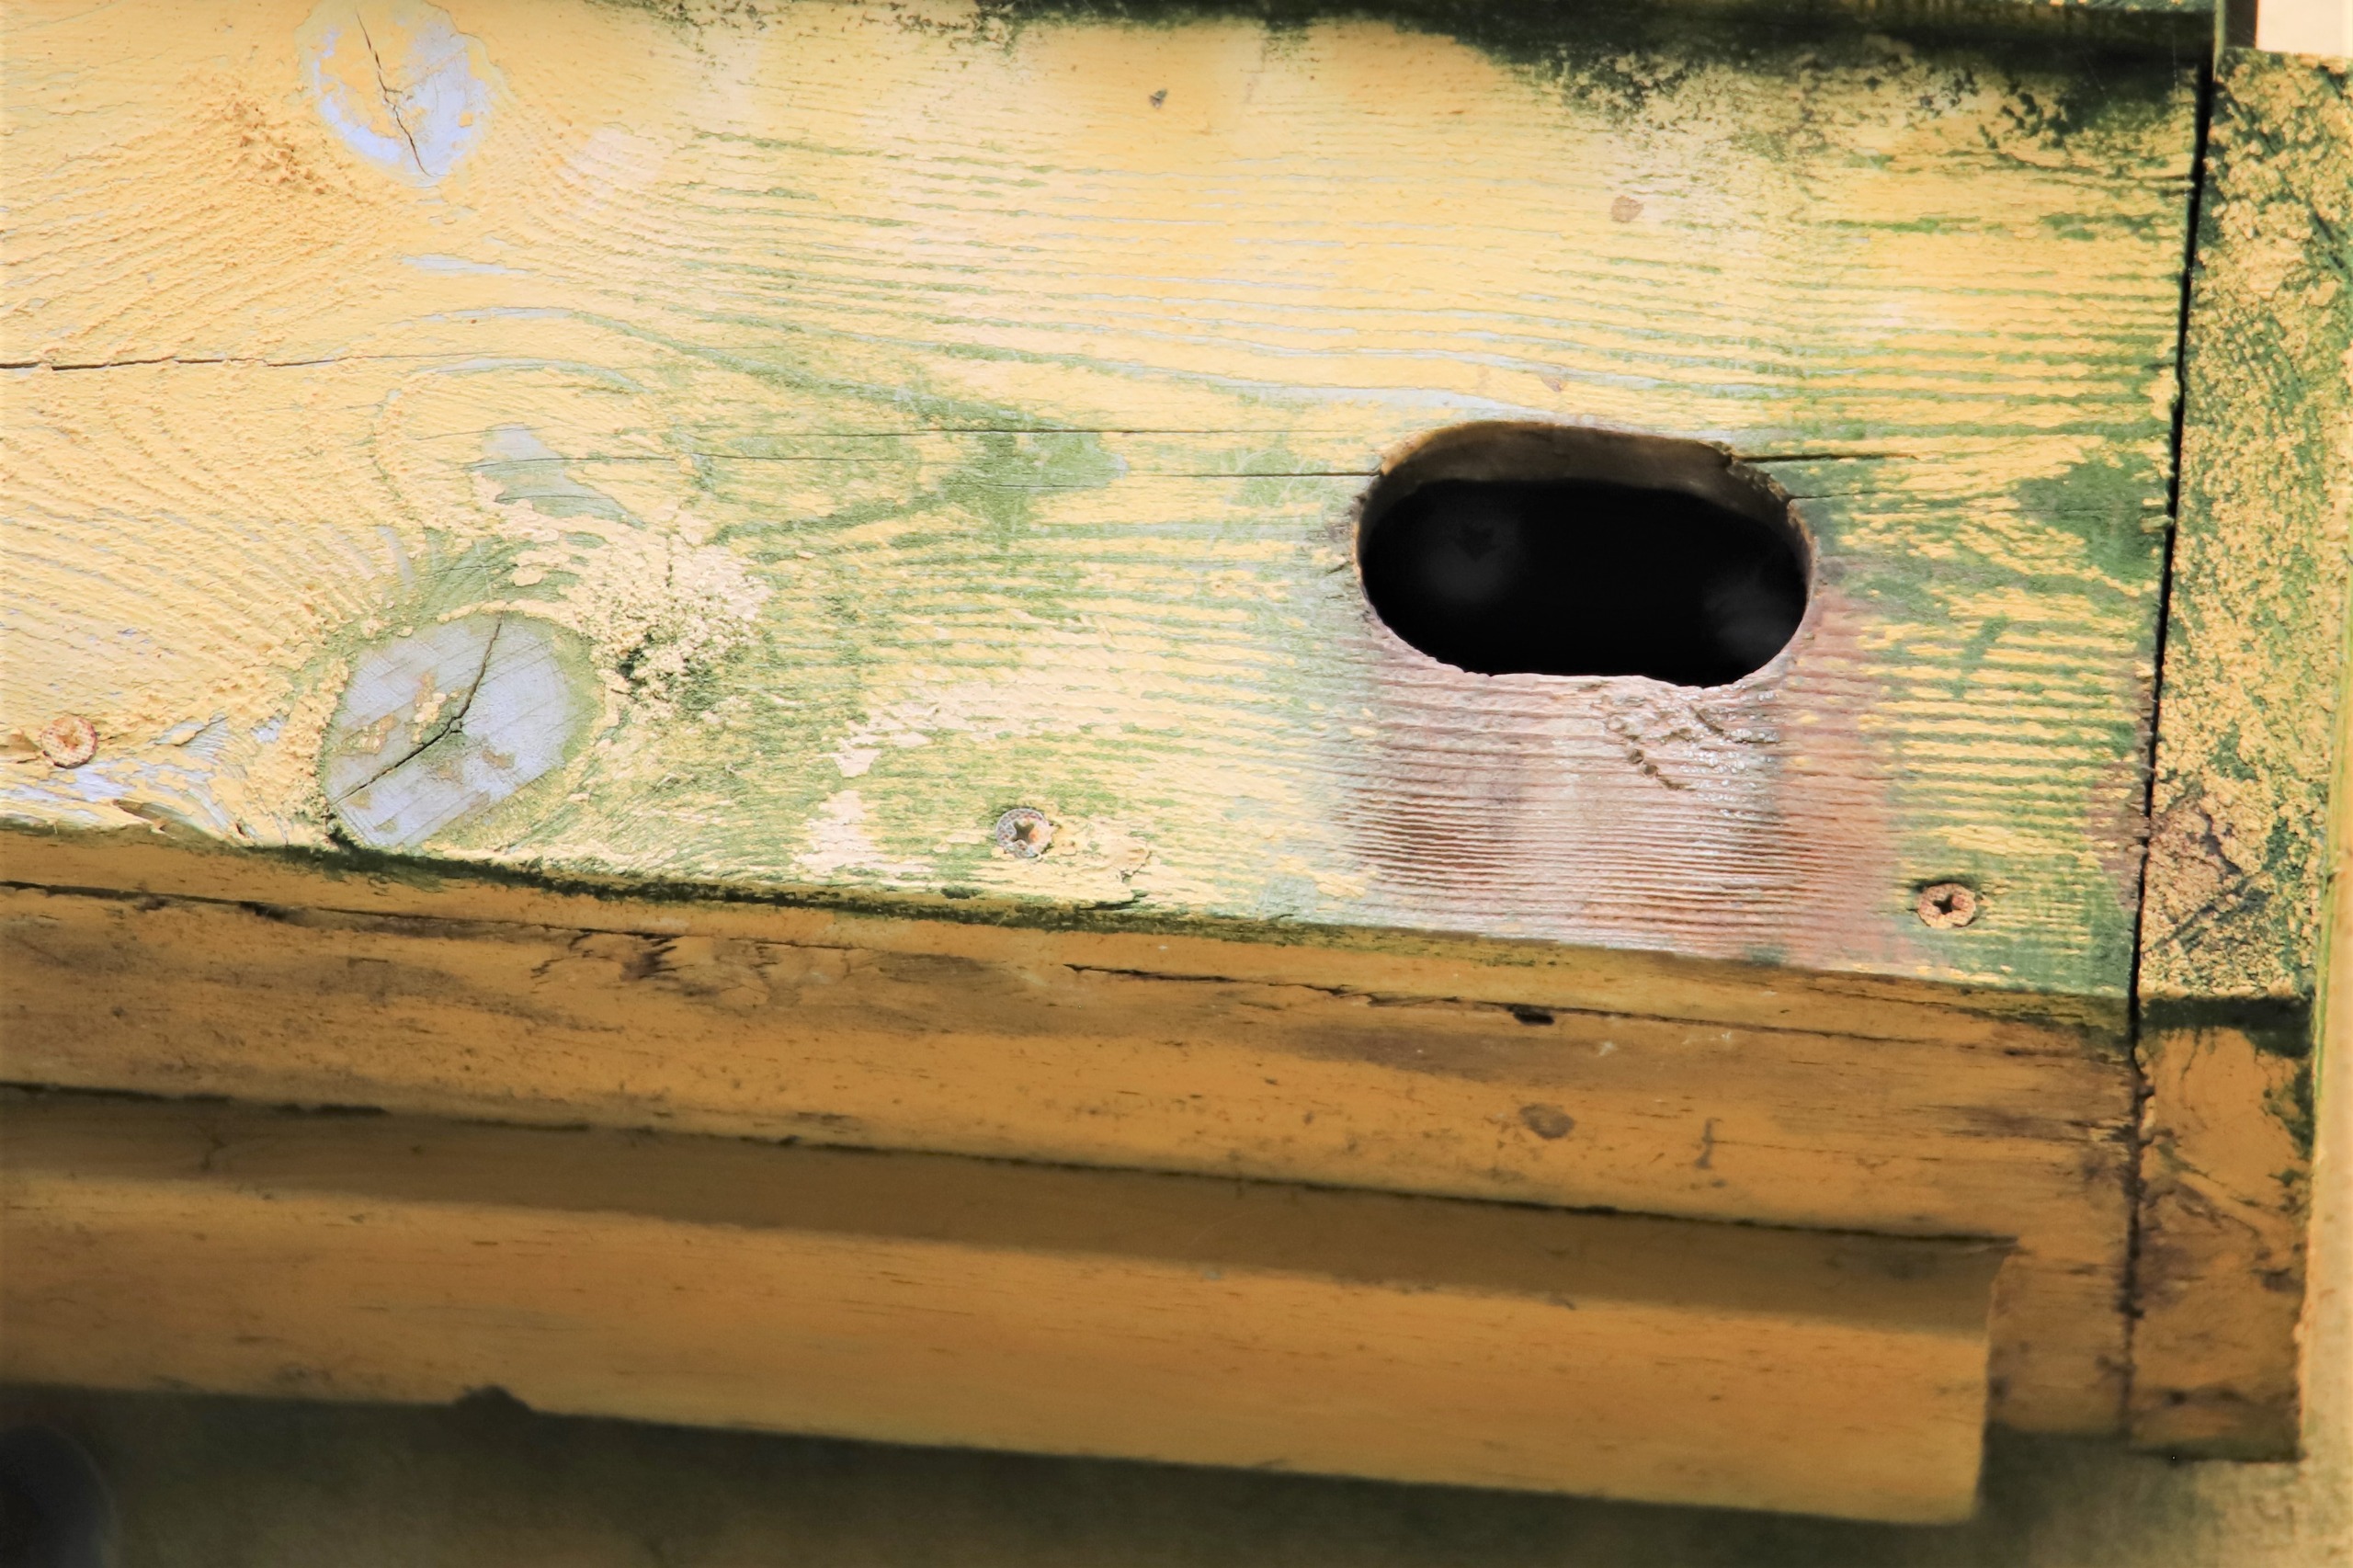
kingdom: Animalia
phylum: Chordata
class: Aves
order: Apodiformes
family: Apodidae
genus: Apus
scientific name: Apus apus
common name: Mursejler
